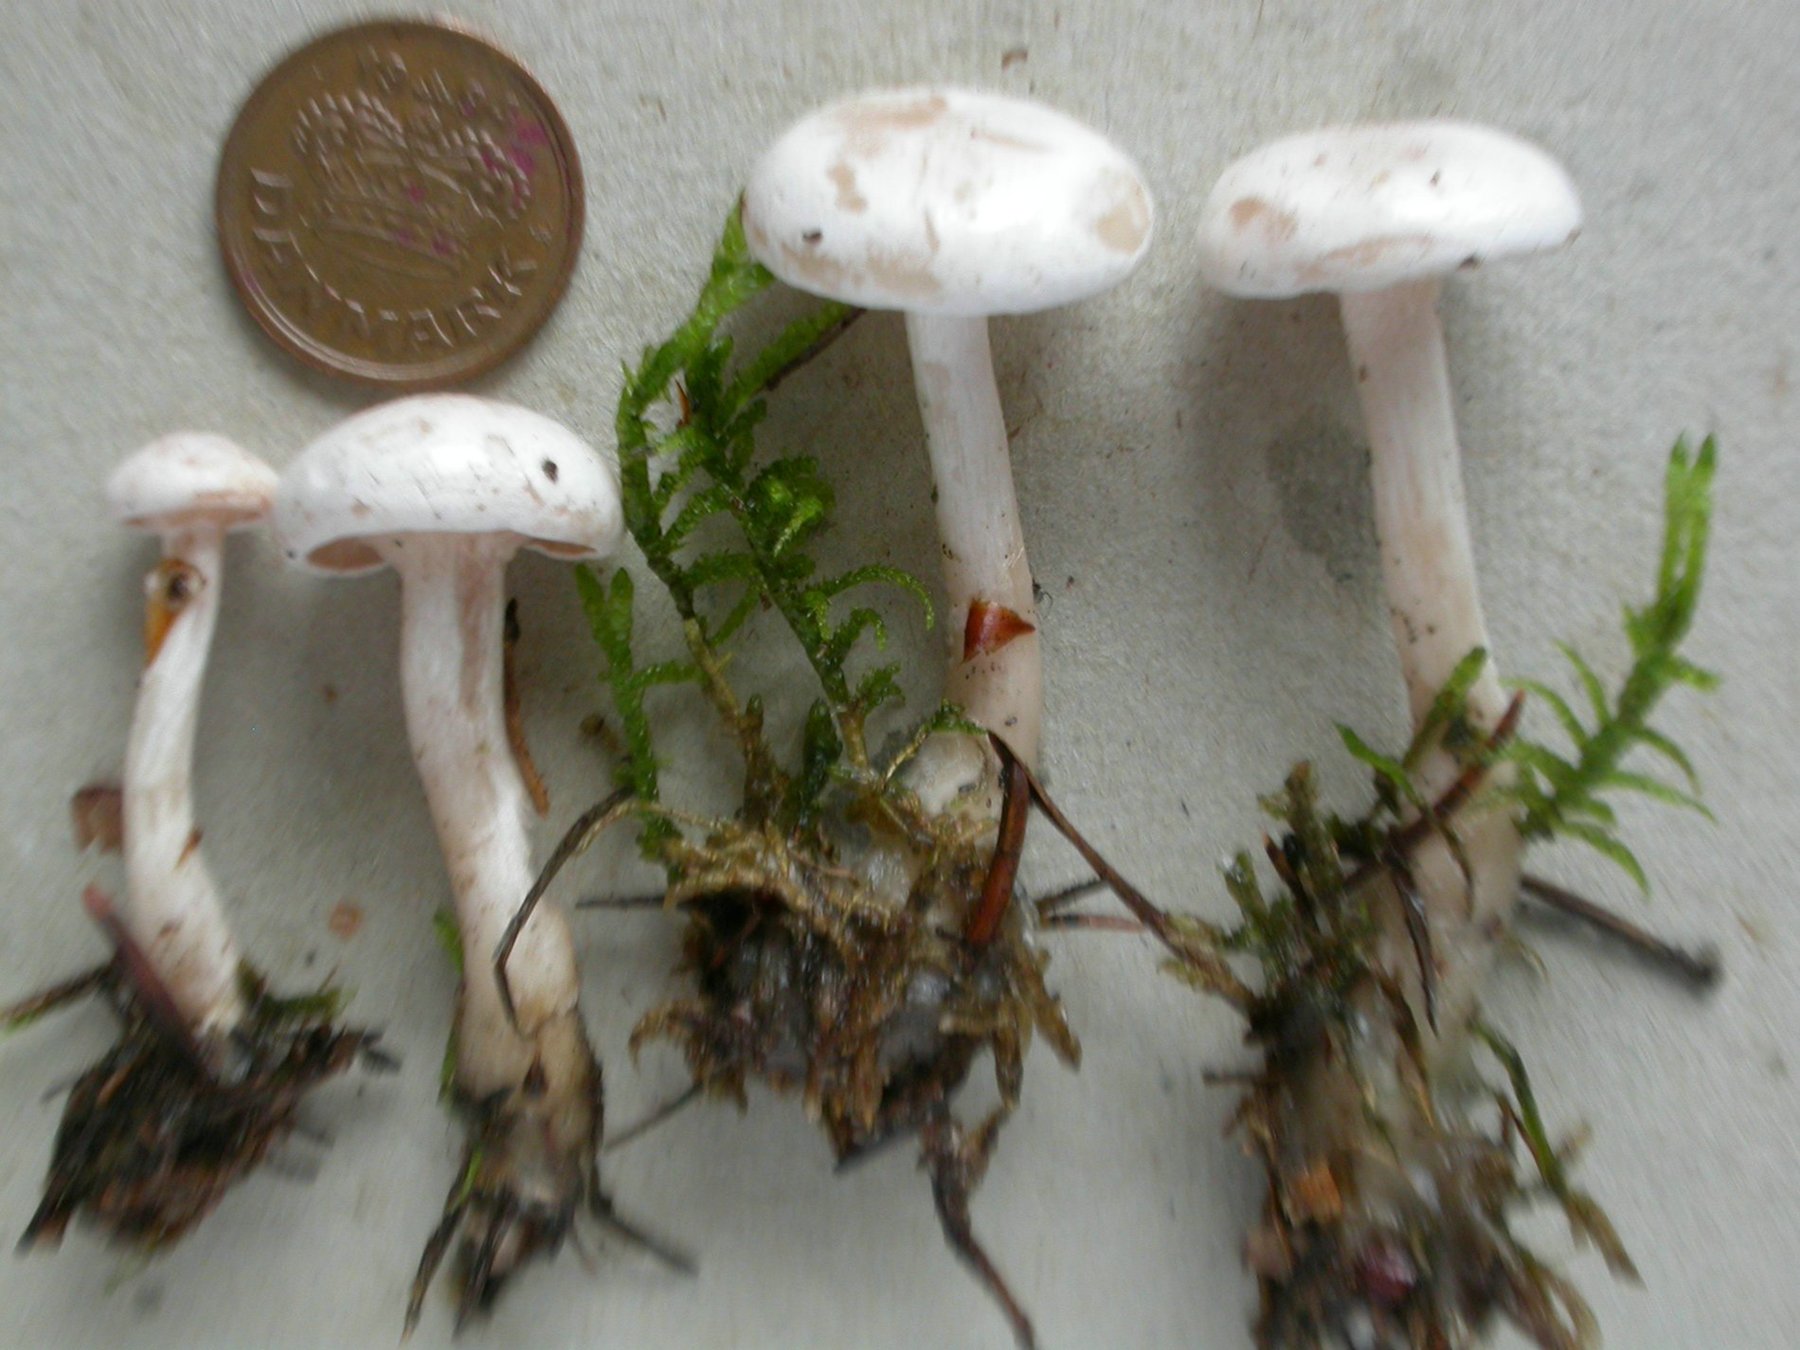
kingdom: Fungi
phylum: Basidiomycota
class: Agaricomycetes
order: Agaricales
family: Tricholomataceae
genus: Clitocybe
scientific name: Clitocybe albofragrans
